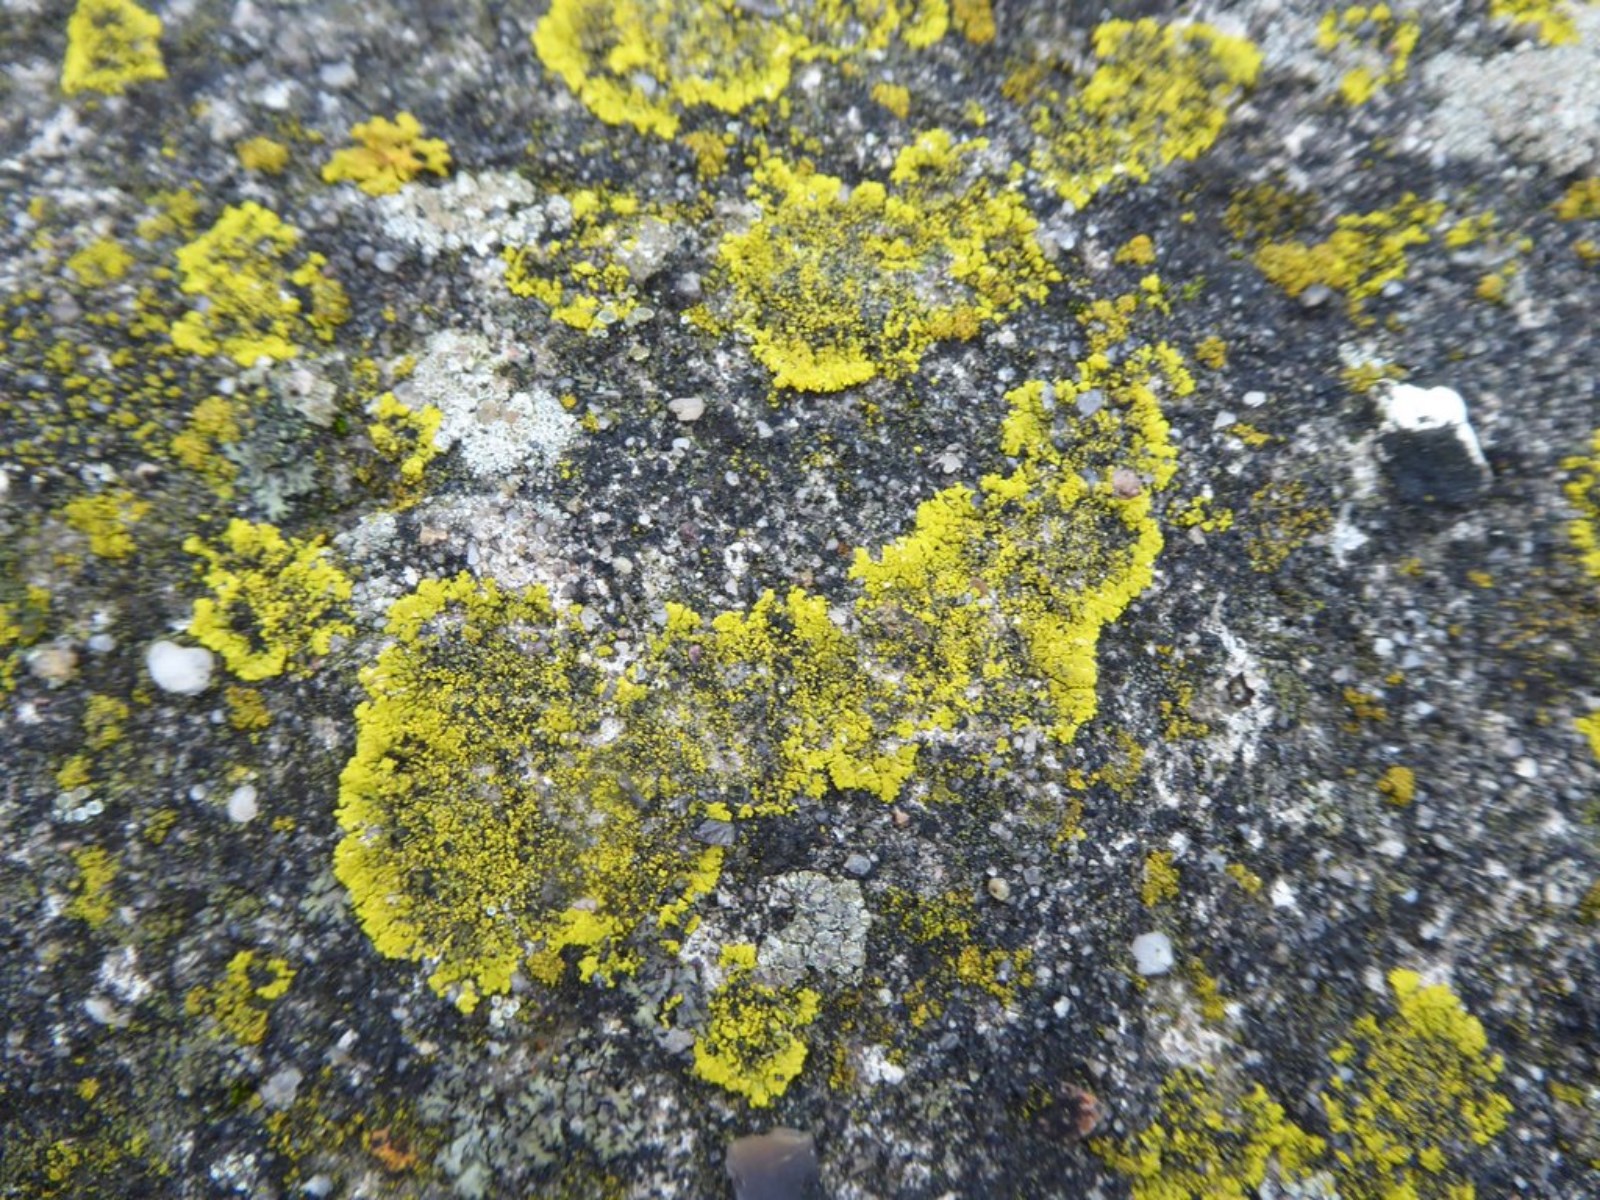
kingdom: Fungi
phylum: Ascomycota
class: Candelariomycetes
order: Candelariales
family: Candelariaceae
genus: Candelariella
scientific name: Candelariella medians
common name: roset-æggeblommelav
